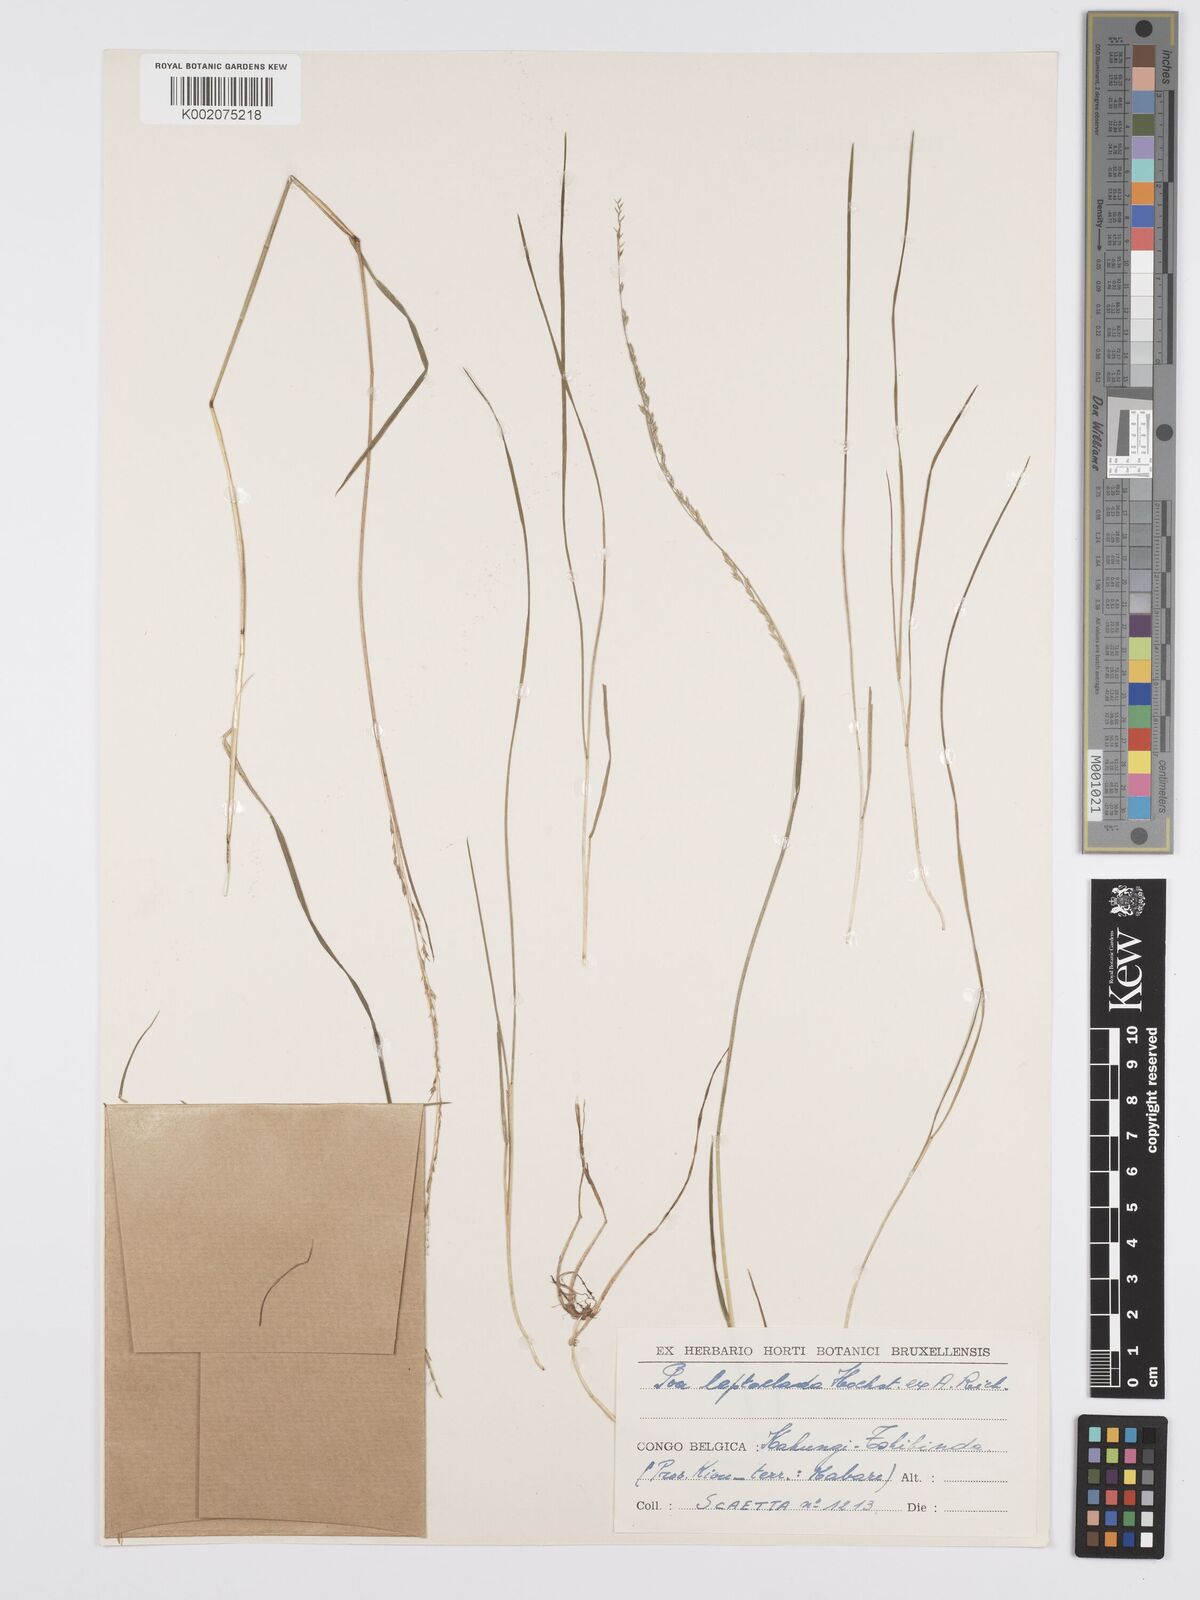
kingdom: Plantae
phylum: Tracheophyta
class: Liliopsida
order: Poales
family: Poaceae
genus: Poa
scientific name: Poa leptoclada
